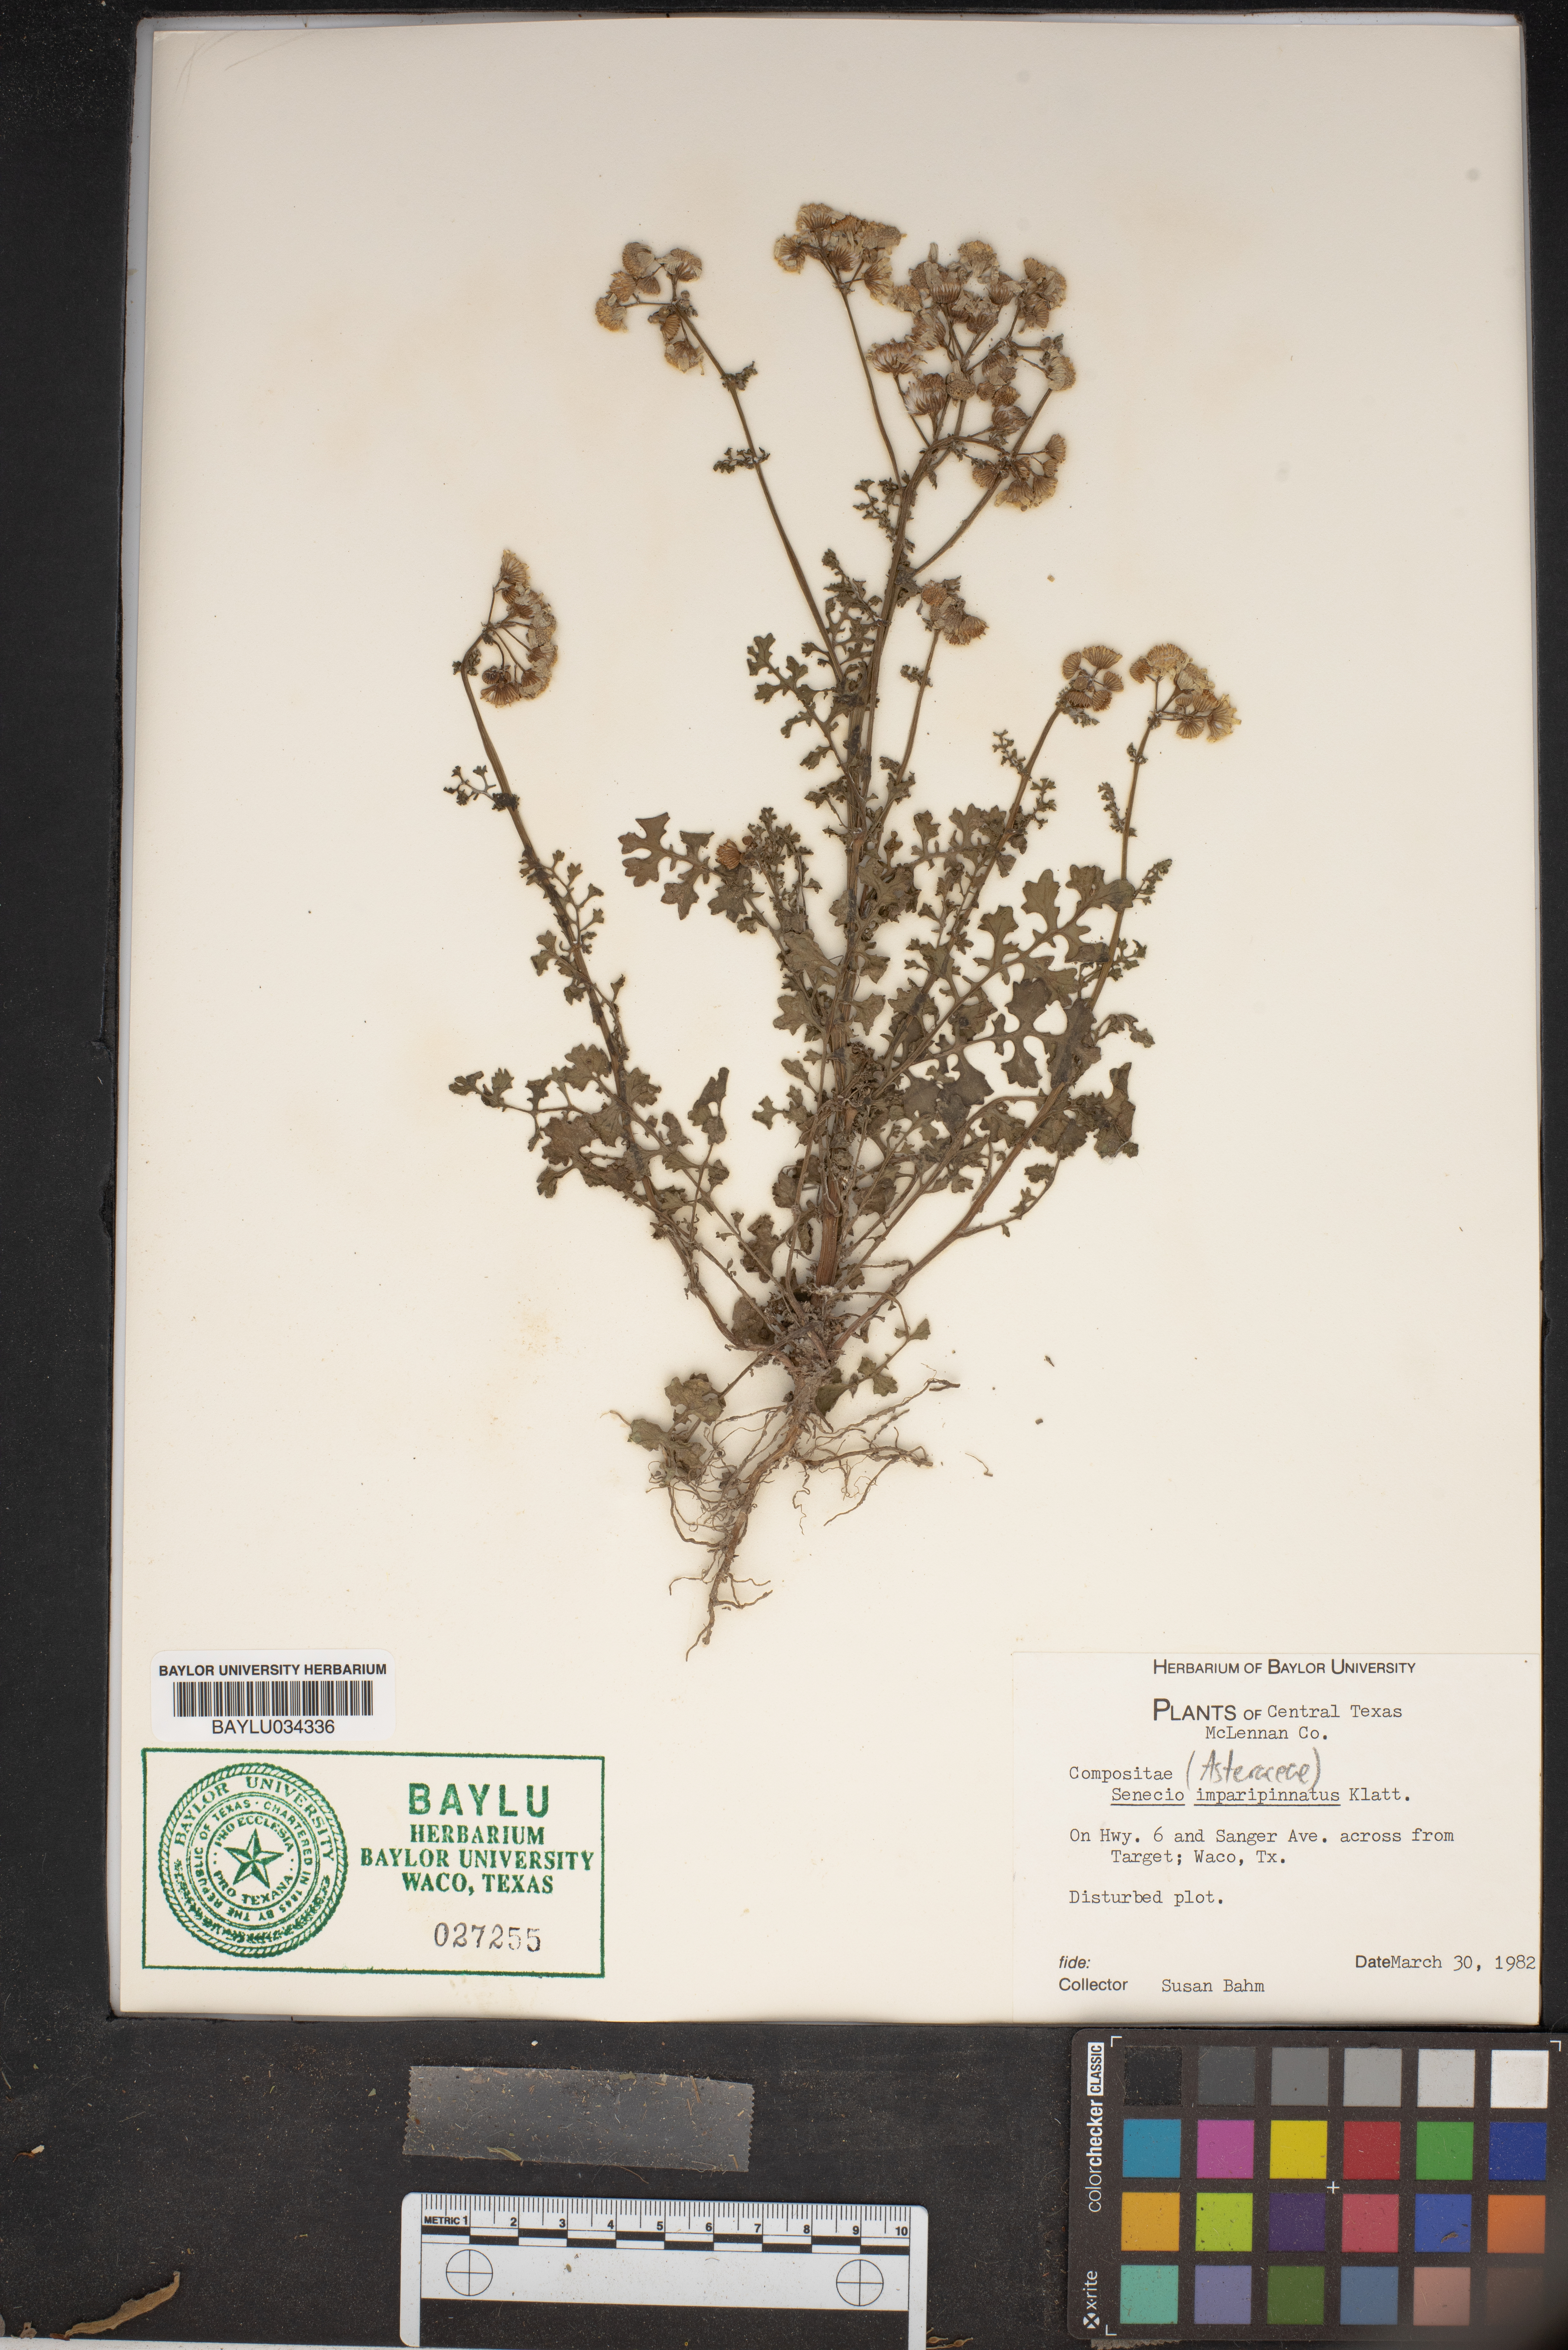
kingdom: Plantae
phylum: Tracheophyta
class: Magnoliopsida
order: Asterales
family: Asteraceae
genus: Packera
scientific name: Packera tampicana
